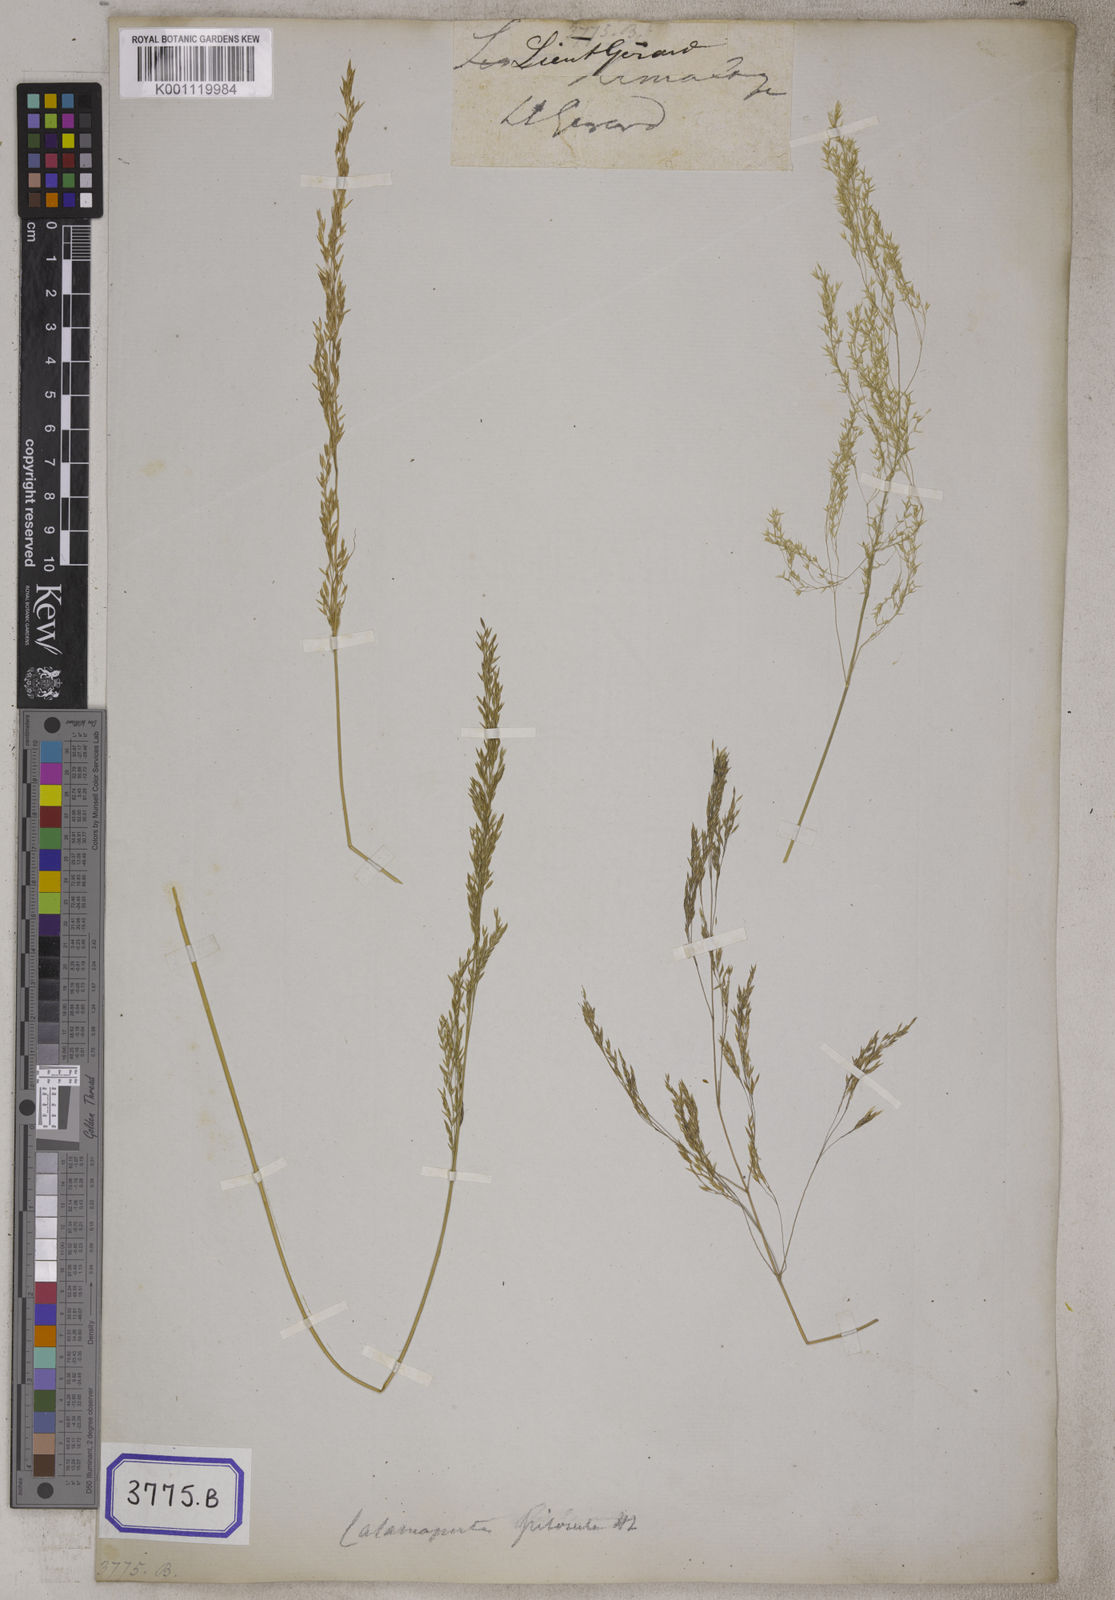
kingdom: Plantae
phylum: Tracheophyta
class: Liliopsida
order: Poales
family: Poaceae
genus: Agrostis
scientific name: Agrostis
